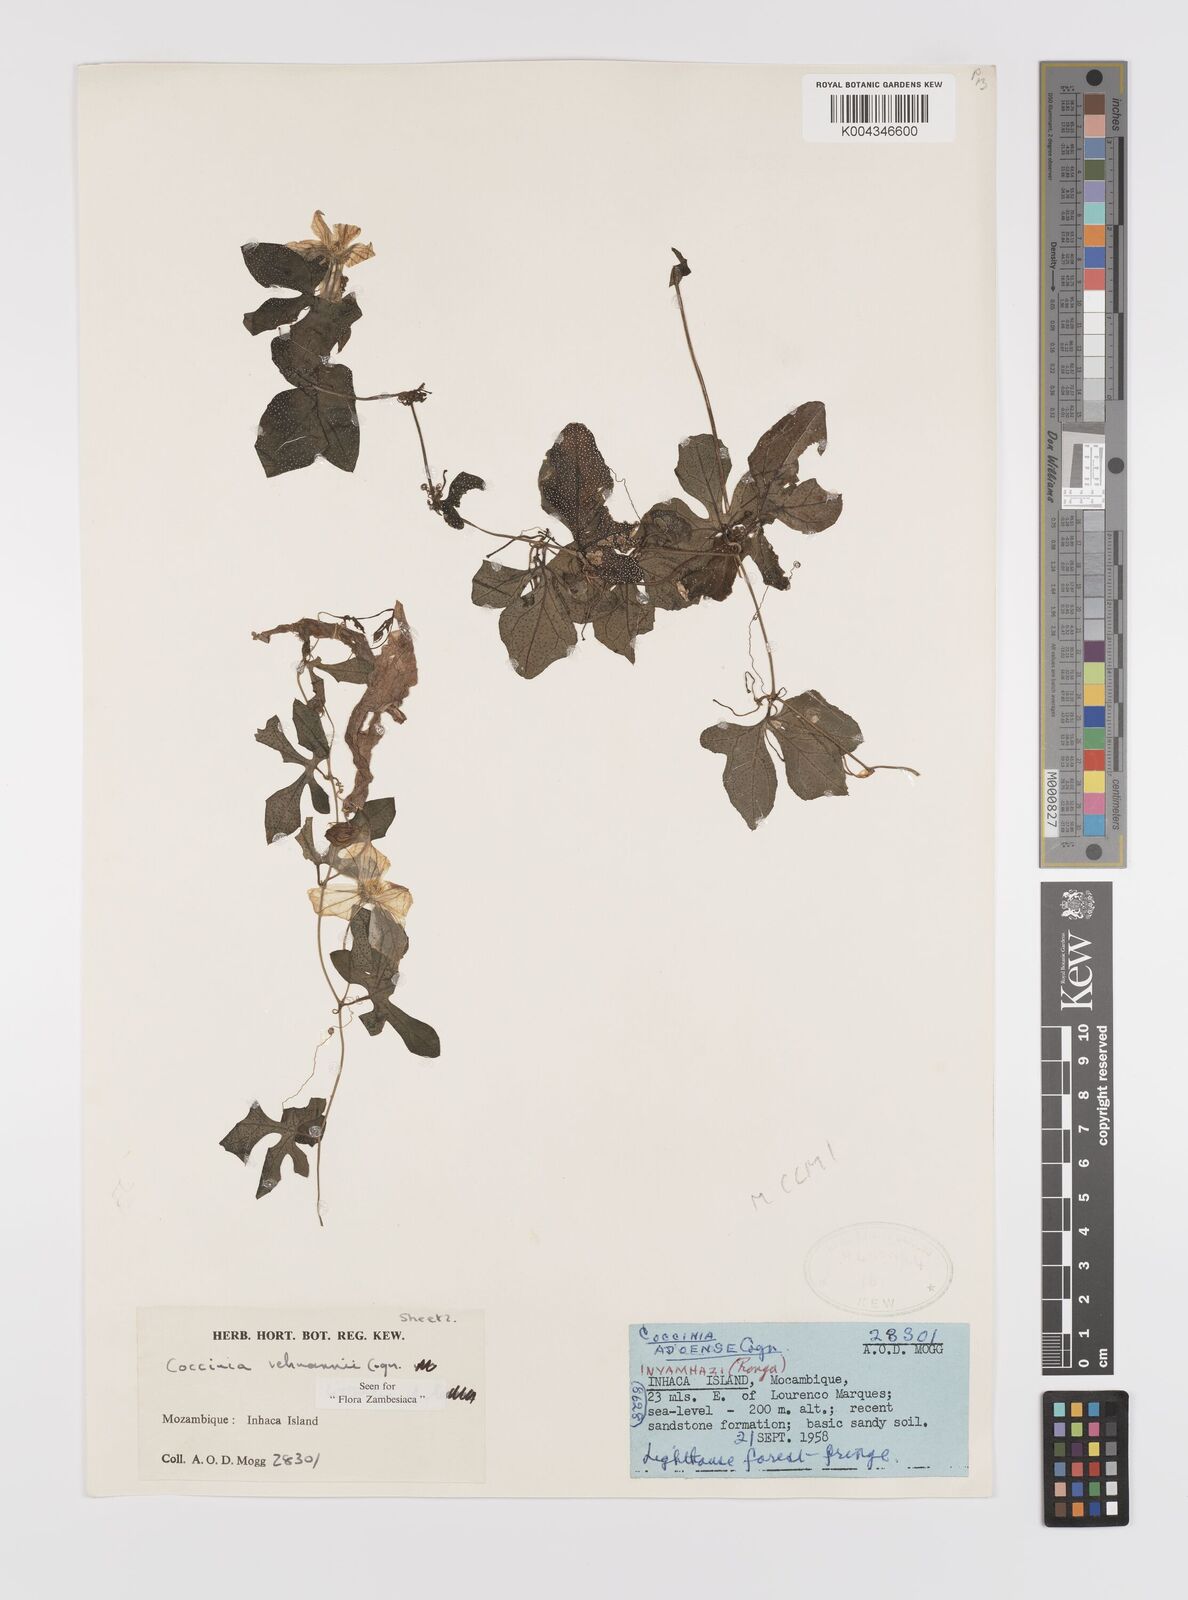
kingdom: Plantae
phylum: Tracheophyta
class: Magnoliopsida
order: Cucurbitales
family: Cucurbitaceae
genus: Coccinia
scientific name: Coccinia rehmannii
